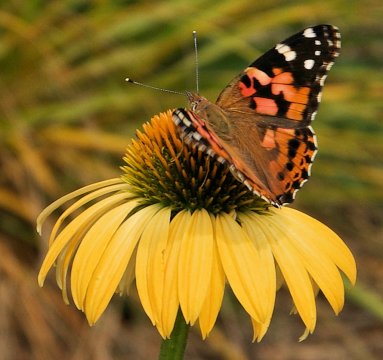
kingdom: Animalia
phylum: Arthropoda
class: Insecta
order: Lepidoptera
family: Nymphalidae
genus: Vanessa
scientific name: Vanessa cardui
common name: Painted Lady
